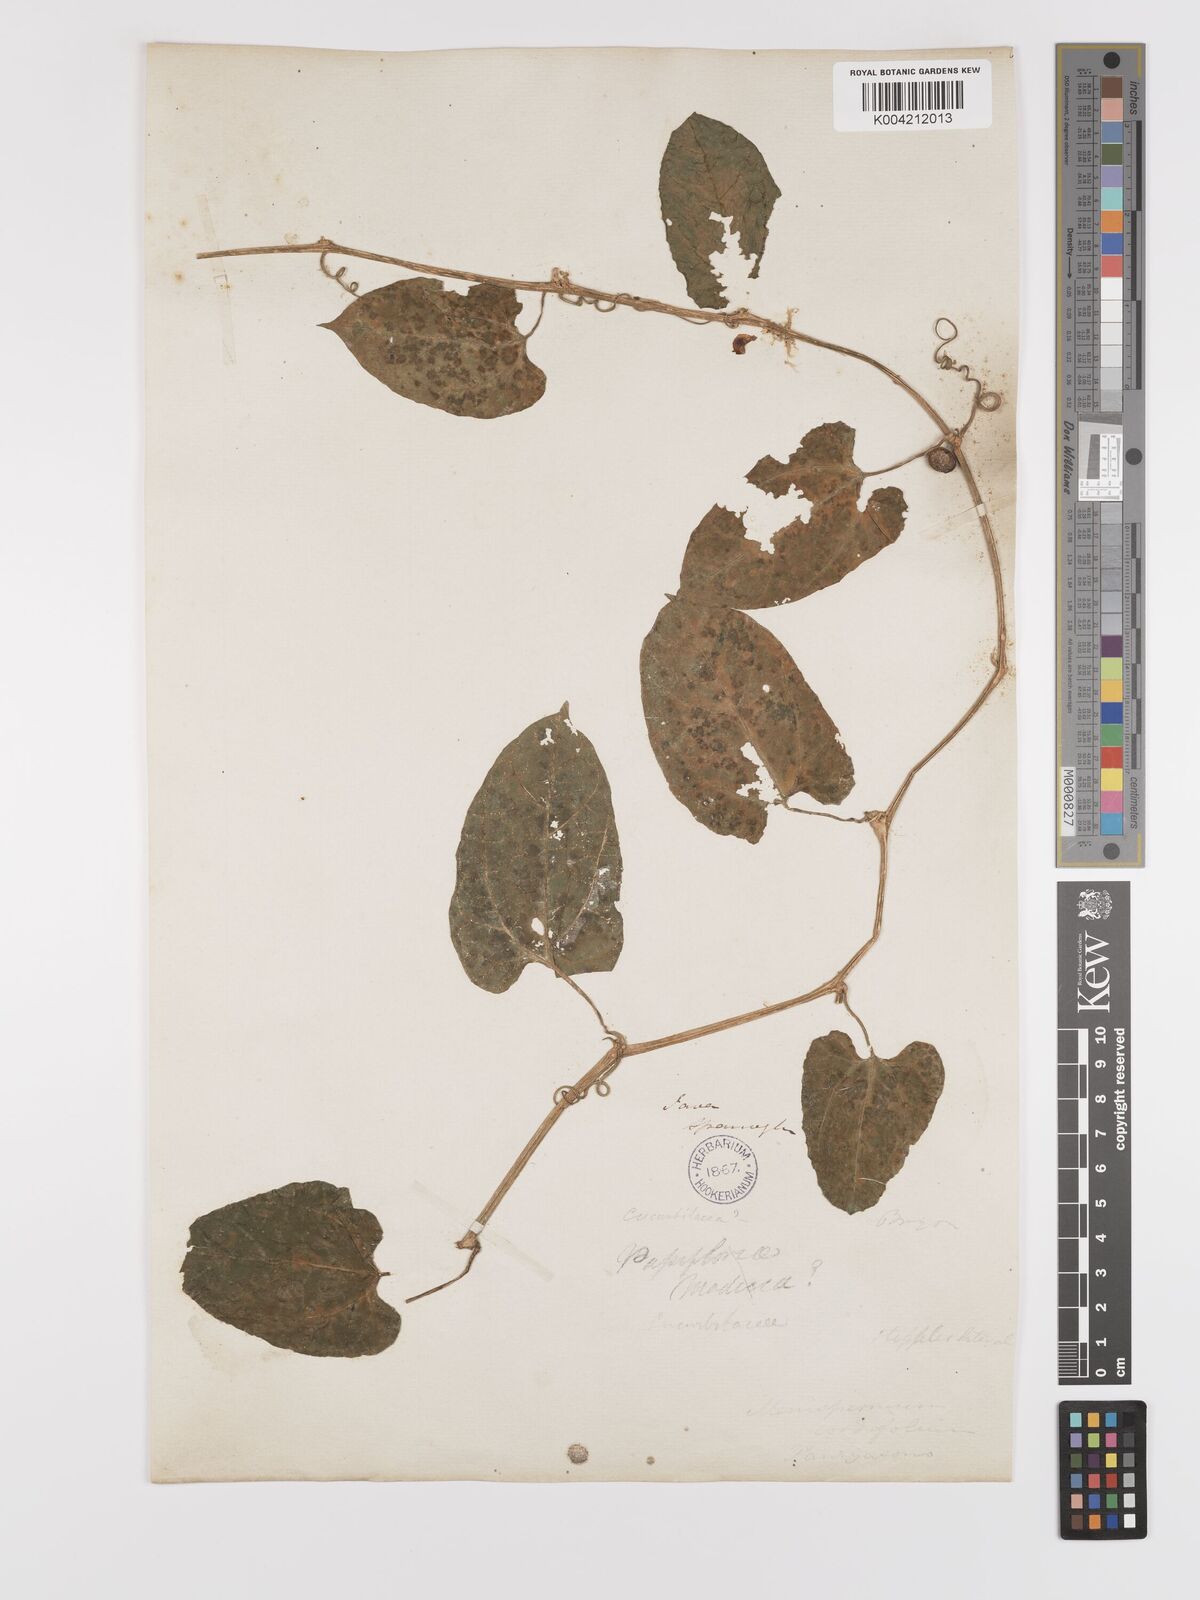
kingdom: Plantae
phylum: Tracheophyta
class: Magnoliopsida
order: Cucurbitales
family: Cucurbitaceae
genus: Kedrostis
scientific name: Kedrostis courtallensis
